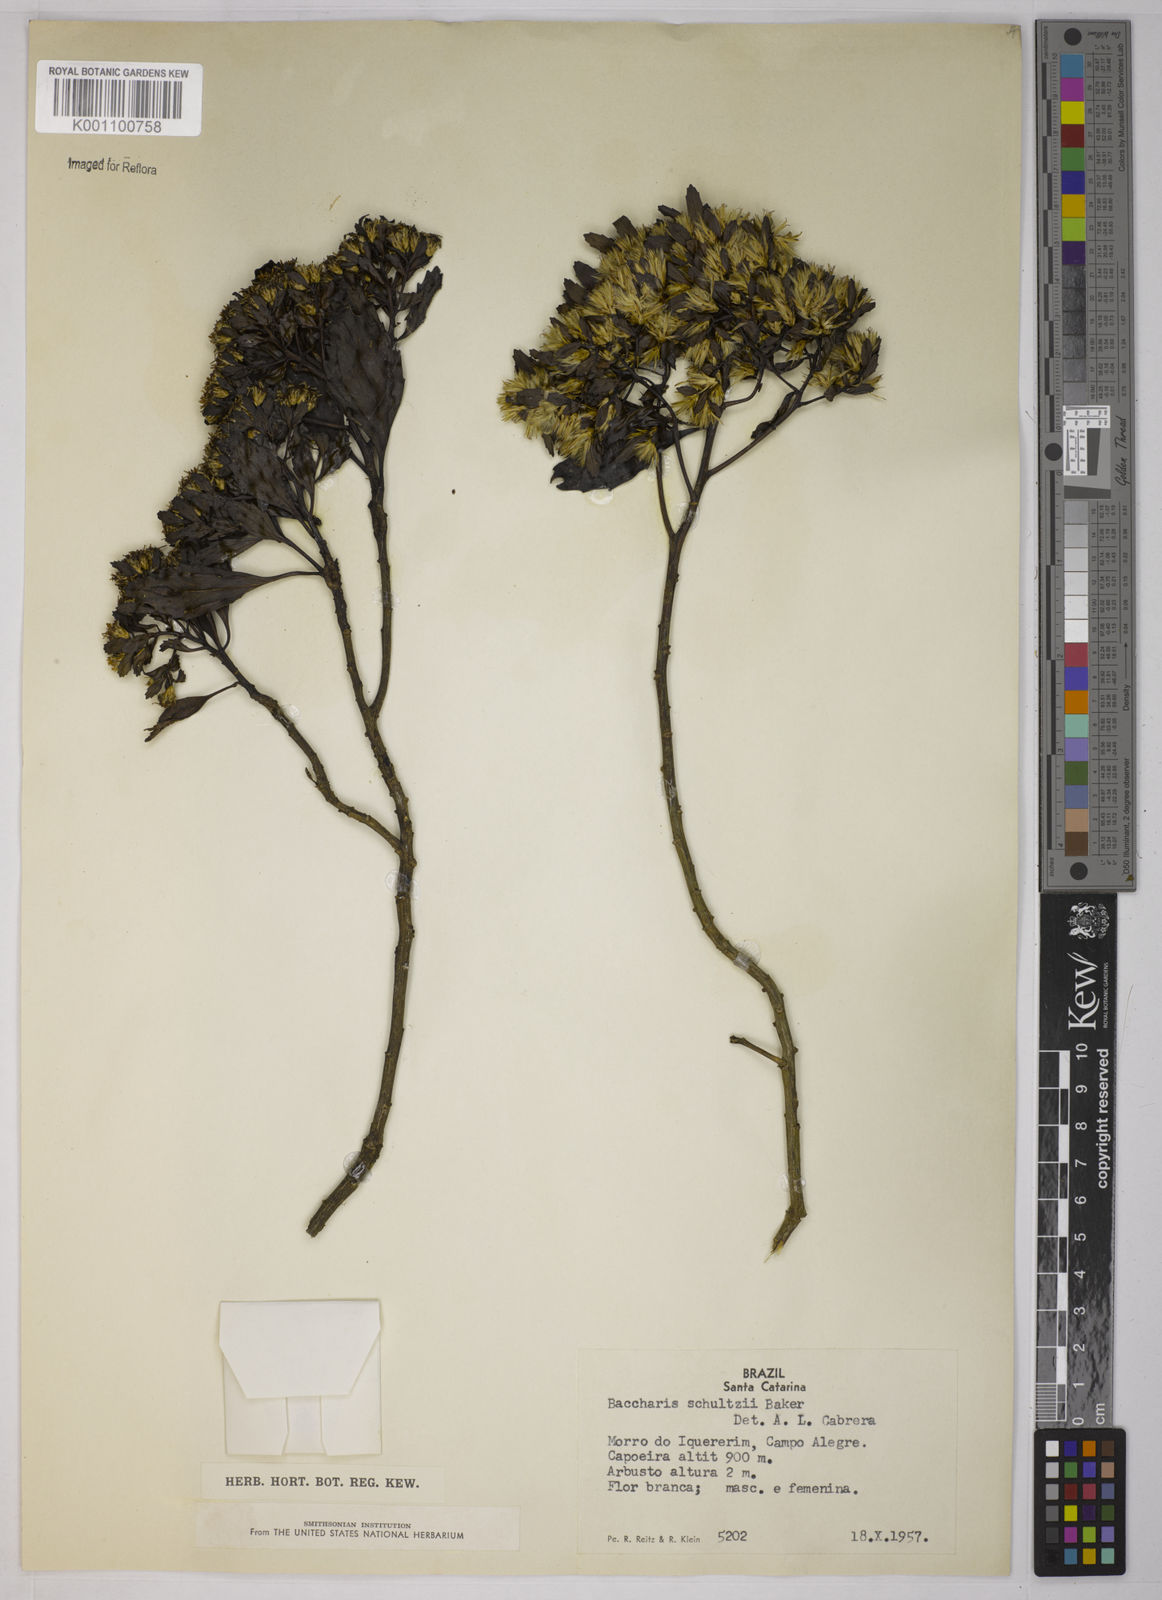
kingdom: Plantae
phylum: Tracheophyta
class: Magnoliopsida
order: Asterales
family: Asteraceae
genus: Baccharis
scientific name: Baccharis lateralis
